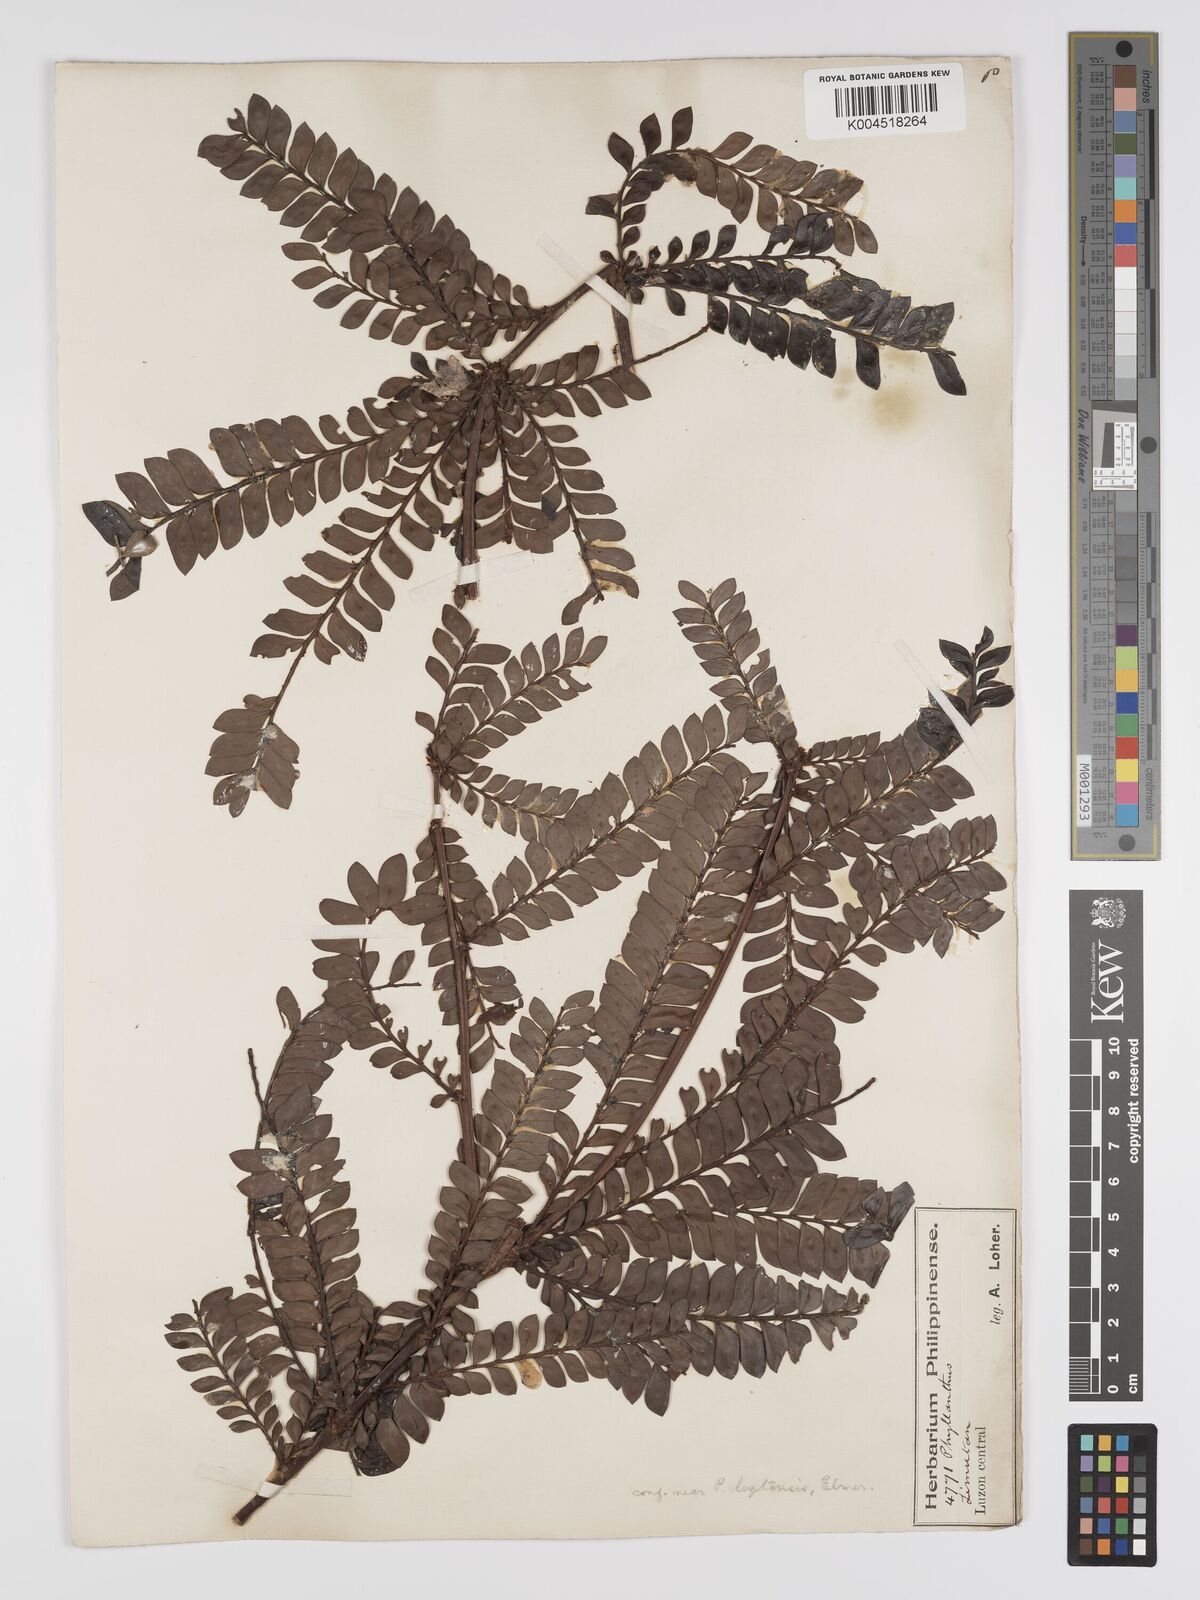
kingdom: Plantae
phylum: Tracheophyta
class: Magnoliopsida
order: Malpighiales
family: Phyllanthaceae
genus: Phyllanthus
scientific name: Phyllanthus buxifolius
